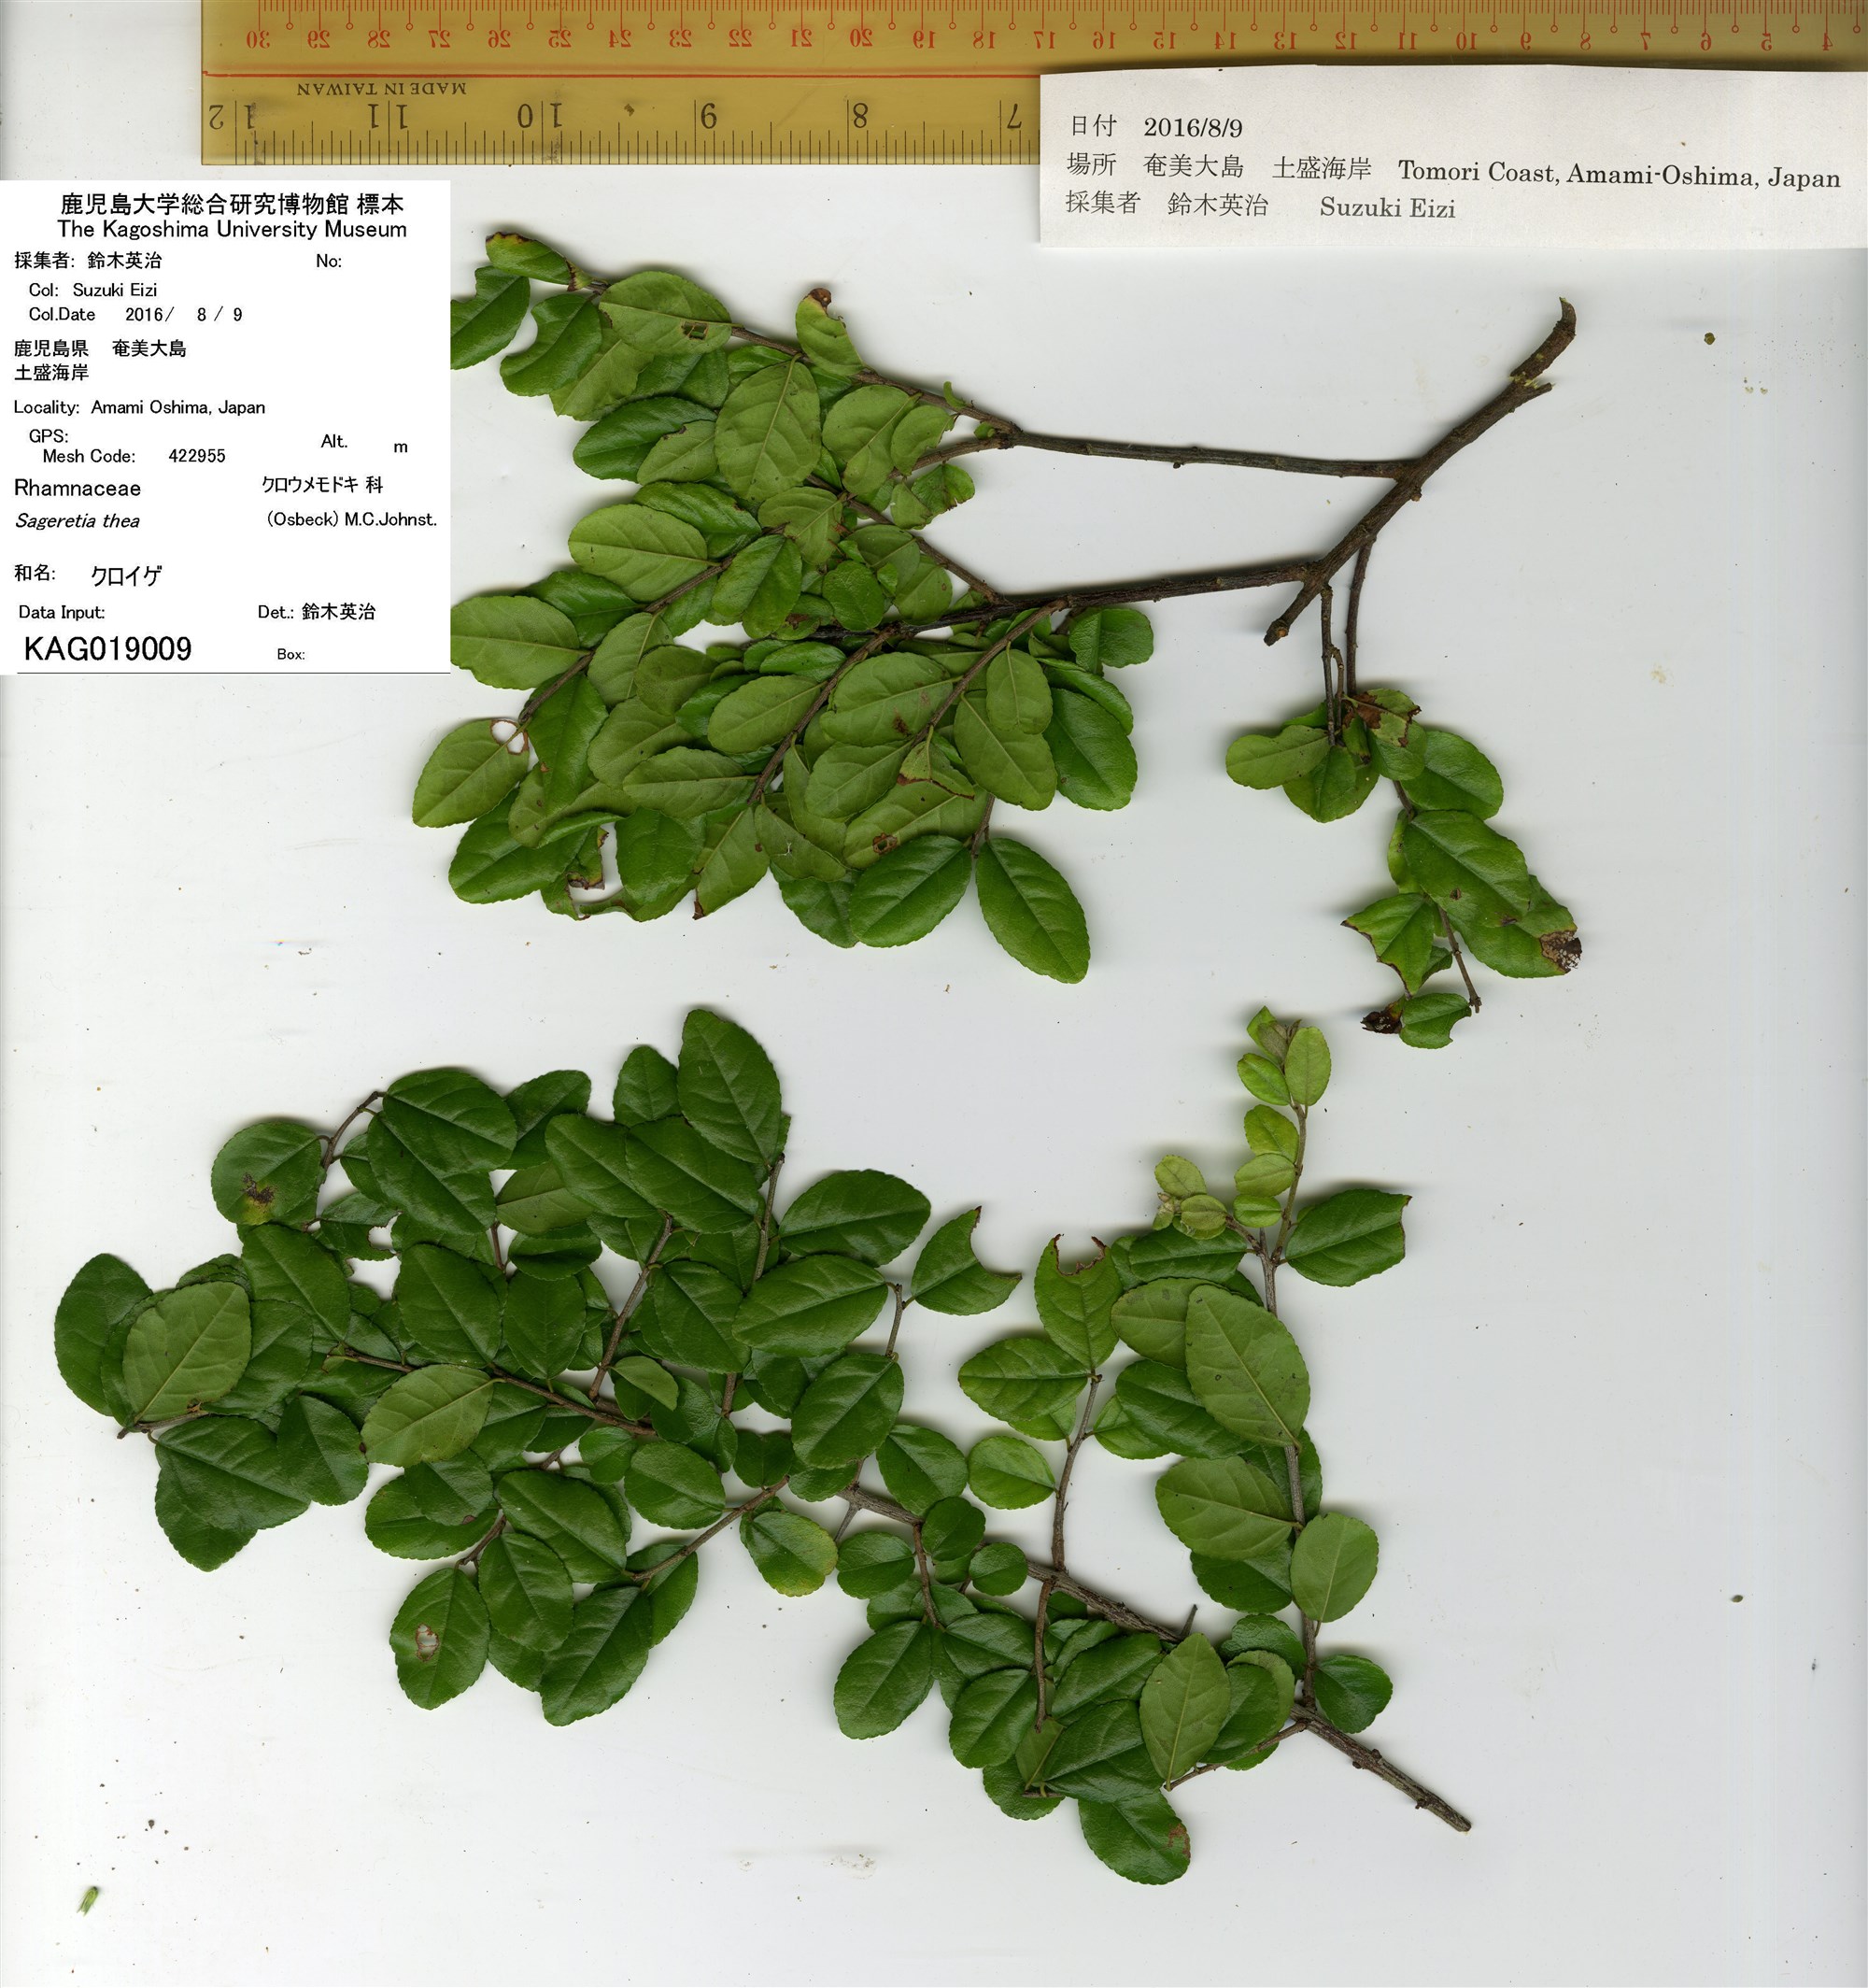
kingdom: Plantae
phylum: Tracheophyta
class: Magnoliopsida
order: Rosales
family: Rhamnaceae
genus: Sageretia
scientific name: Sageretia thea
